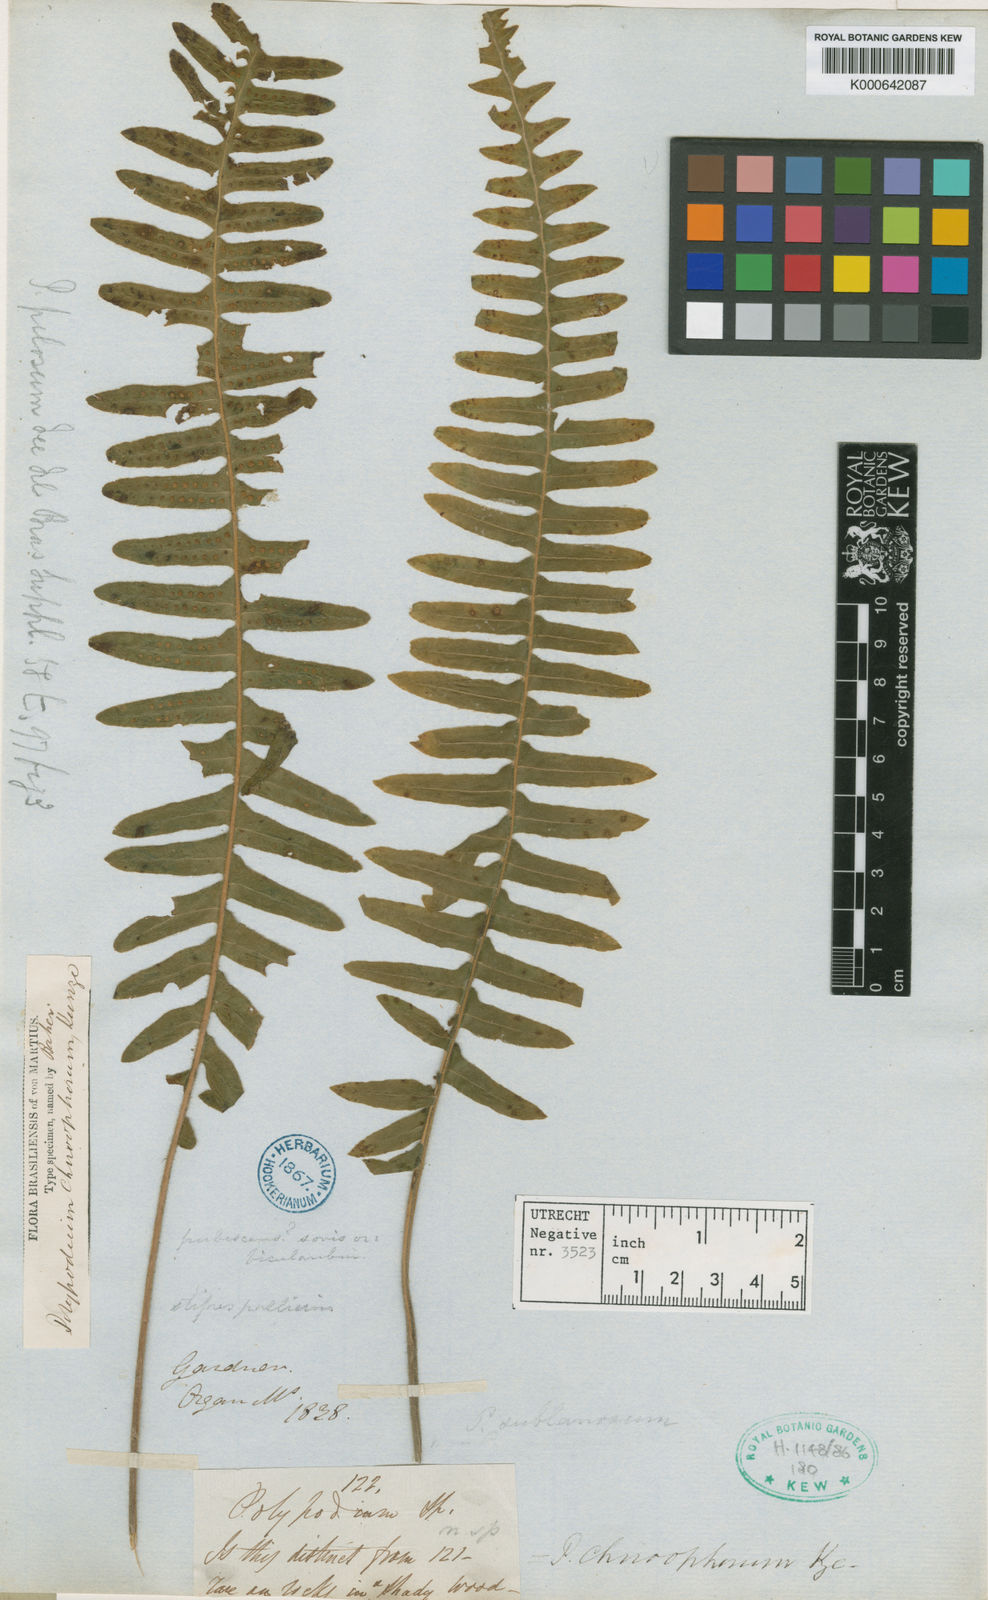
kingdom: Plantae
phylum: Tracheophyta
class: Polypodiopsida
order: Polypodiales
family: Polypodiaceae
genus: Pecluma
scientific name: Pecluma chnoophora
